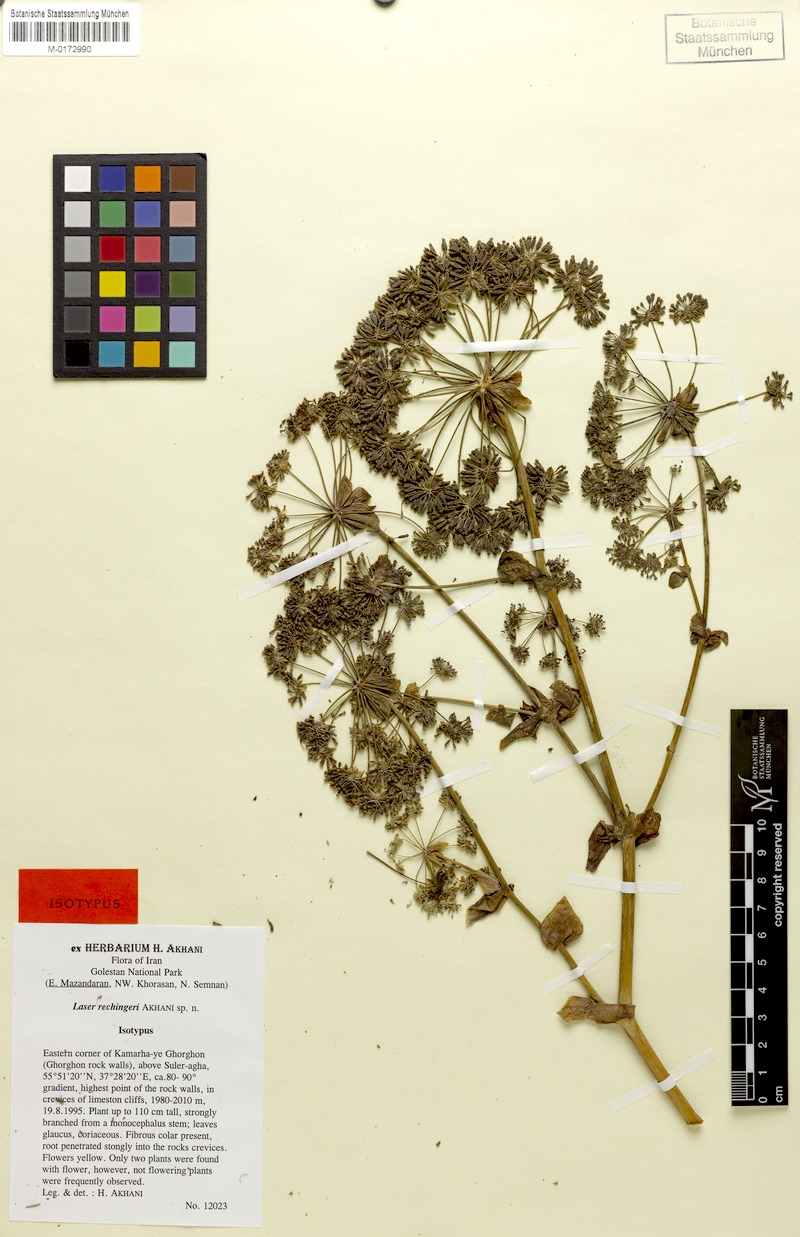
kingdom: Plantae
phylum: Tracheophyta
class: Magnoliopsida
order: Apiales
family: Apiaceae
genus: Ferula
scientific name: Ferula laseroides
